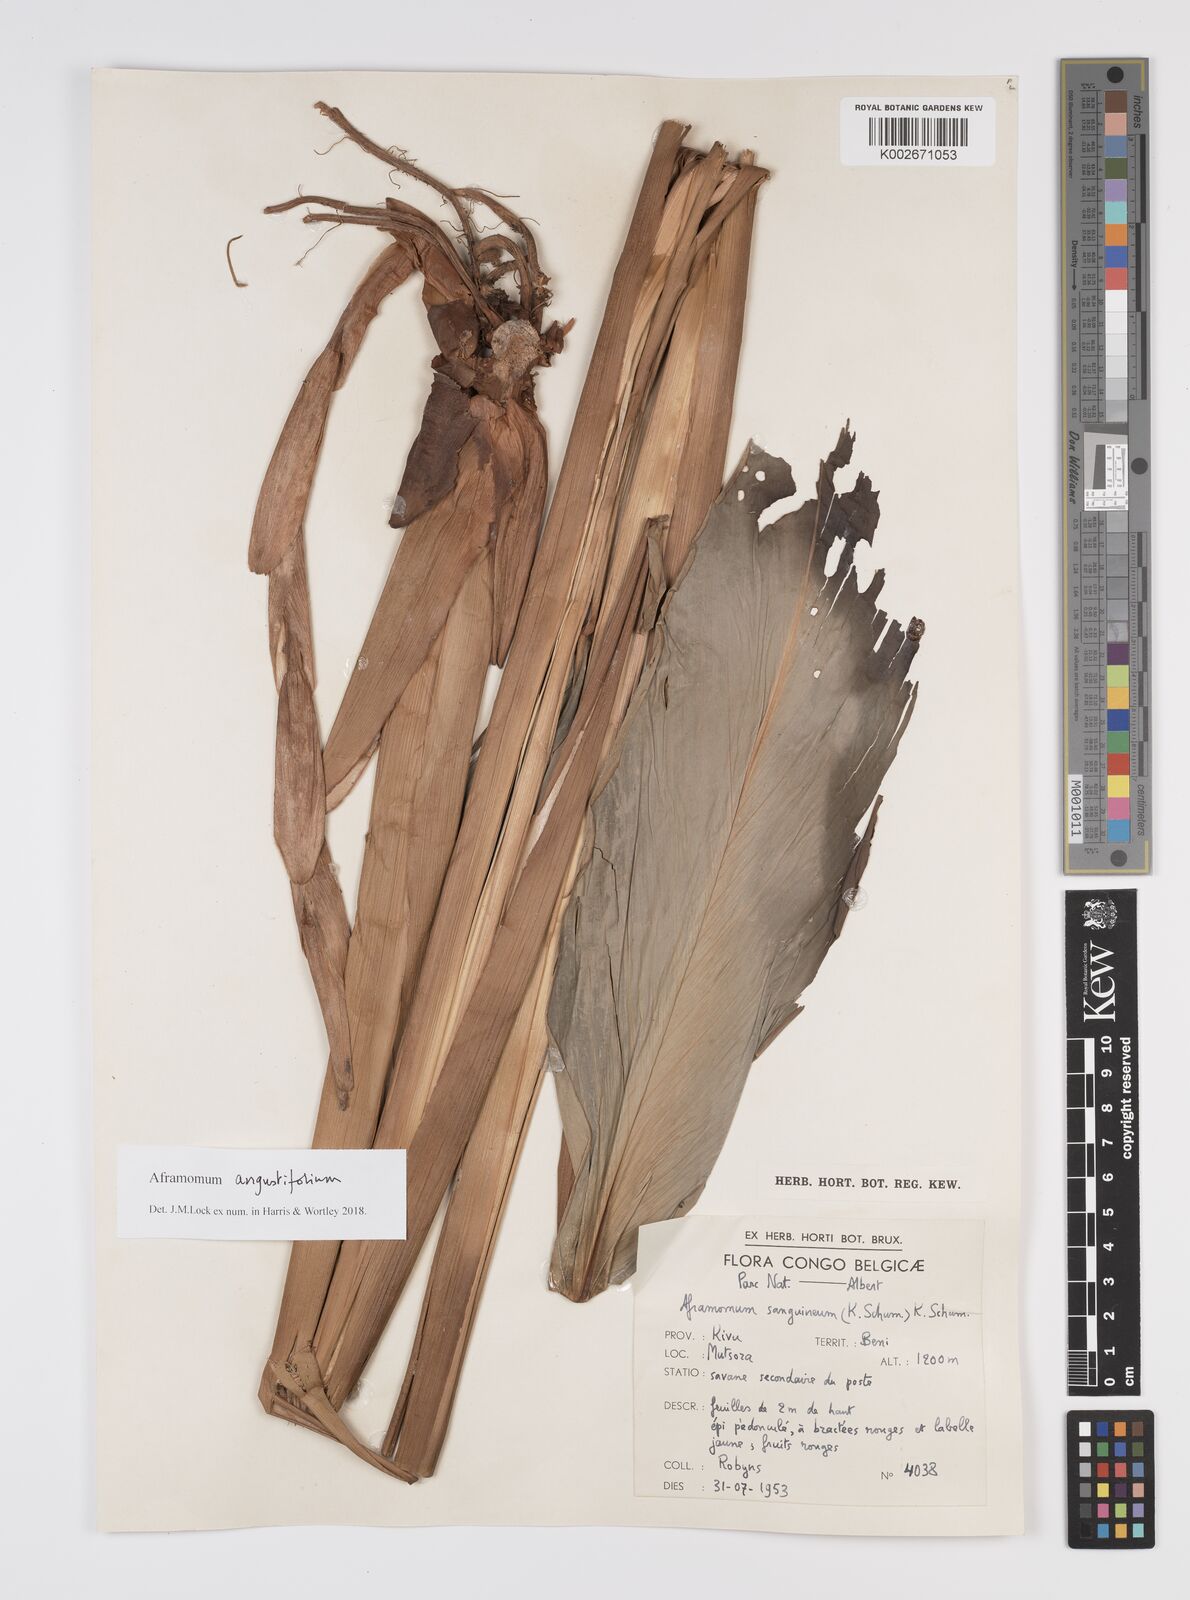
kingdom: Plantae
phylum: Tracheophyta
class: Liliopsida
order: Zingiberales
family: Zingiberaceae
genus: Aframomum
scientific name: Aframomum angustifolium
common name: Guinea grains
